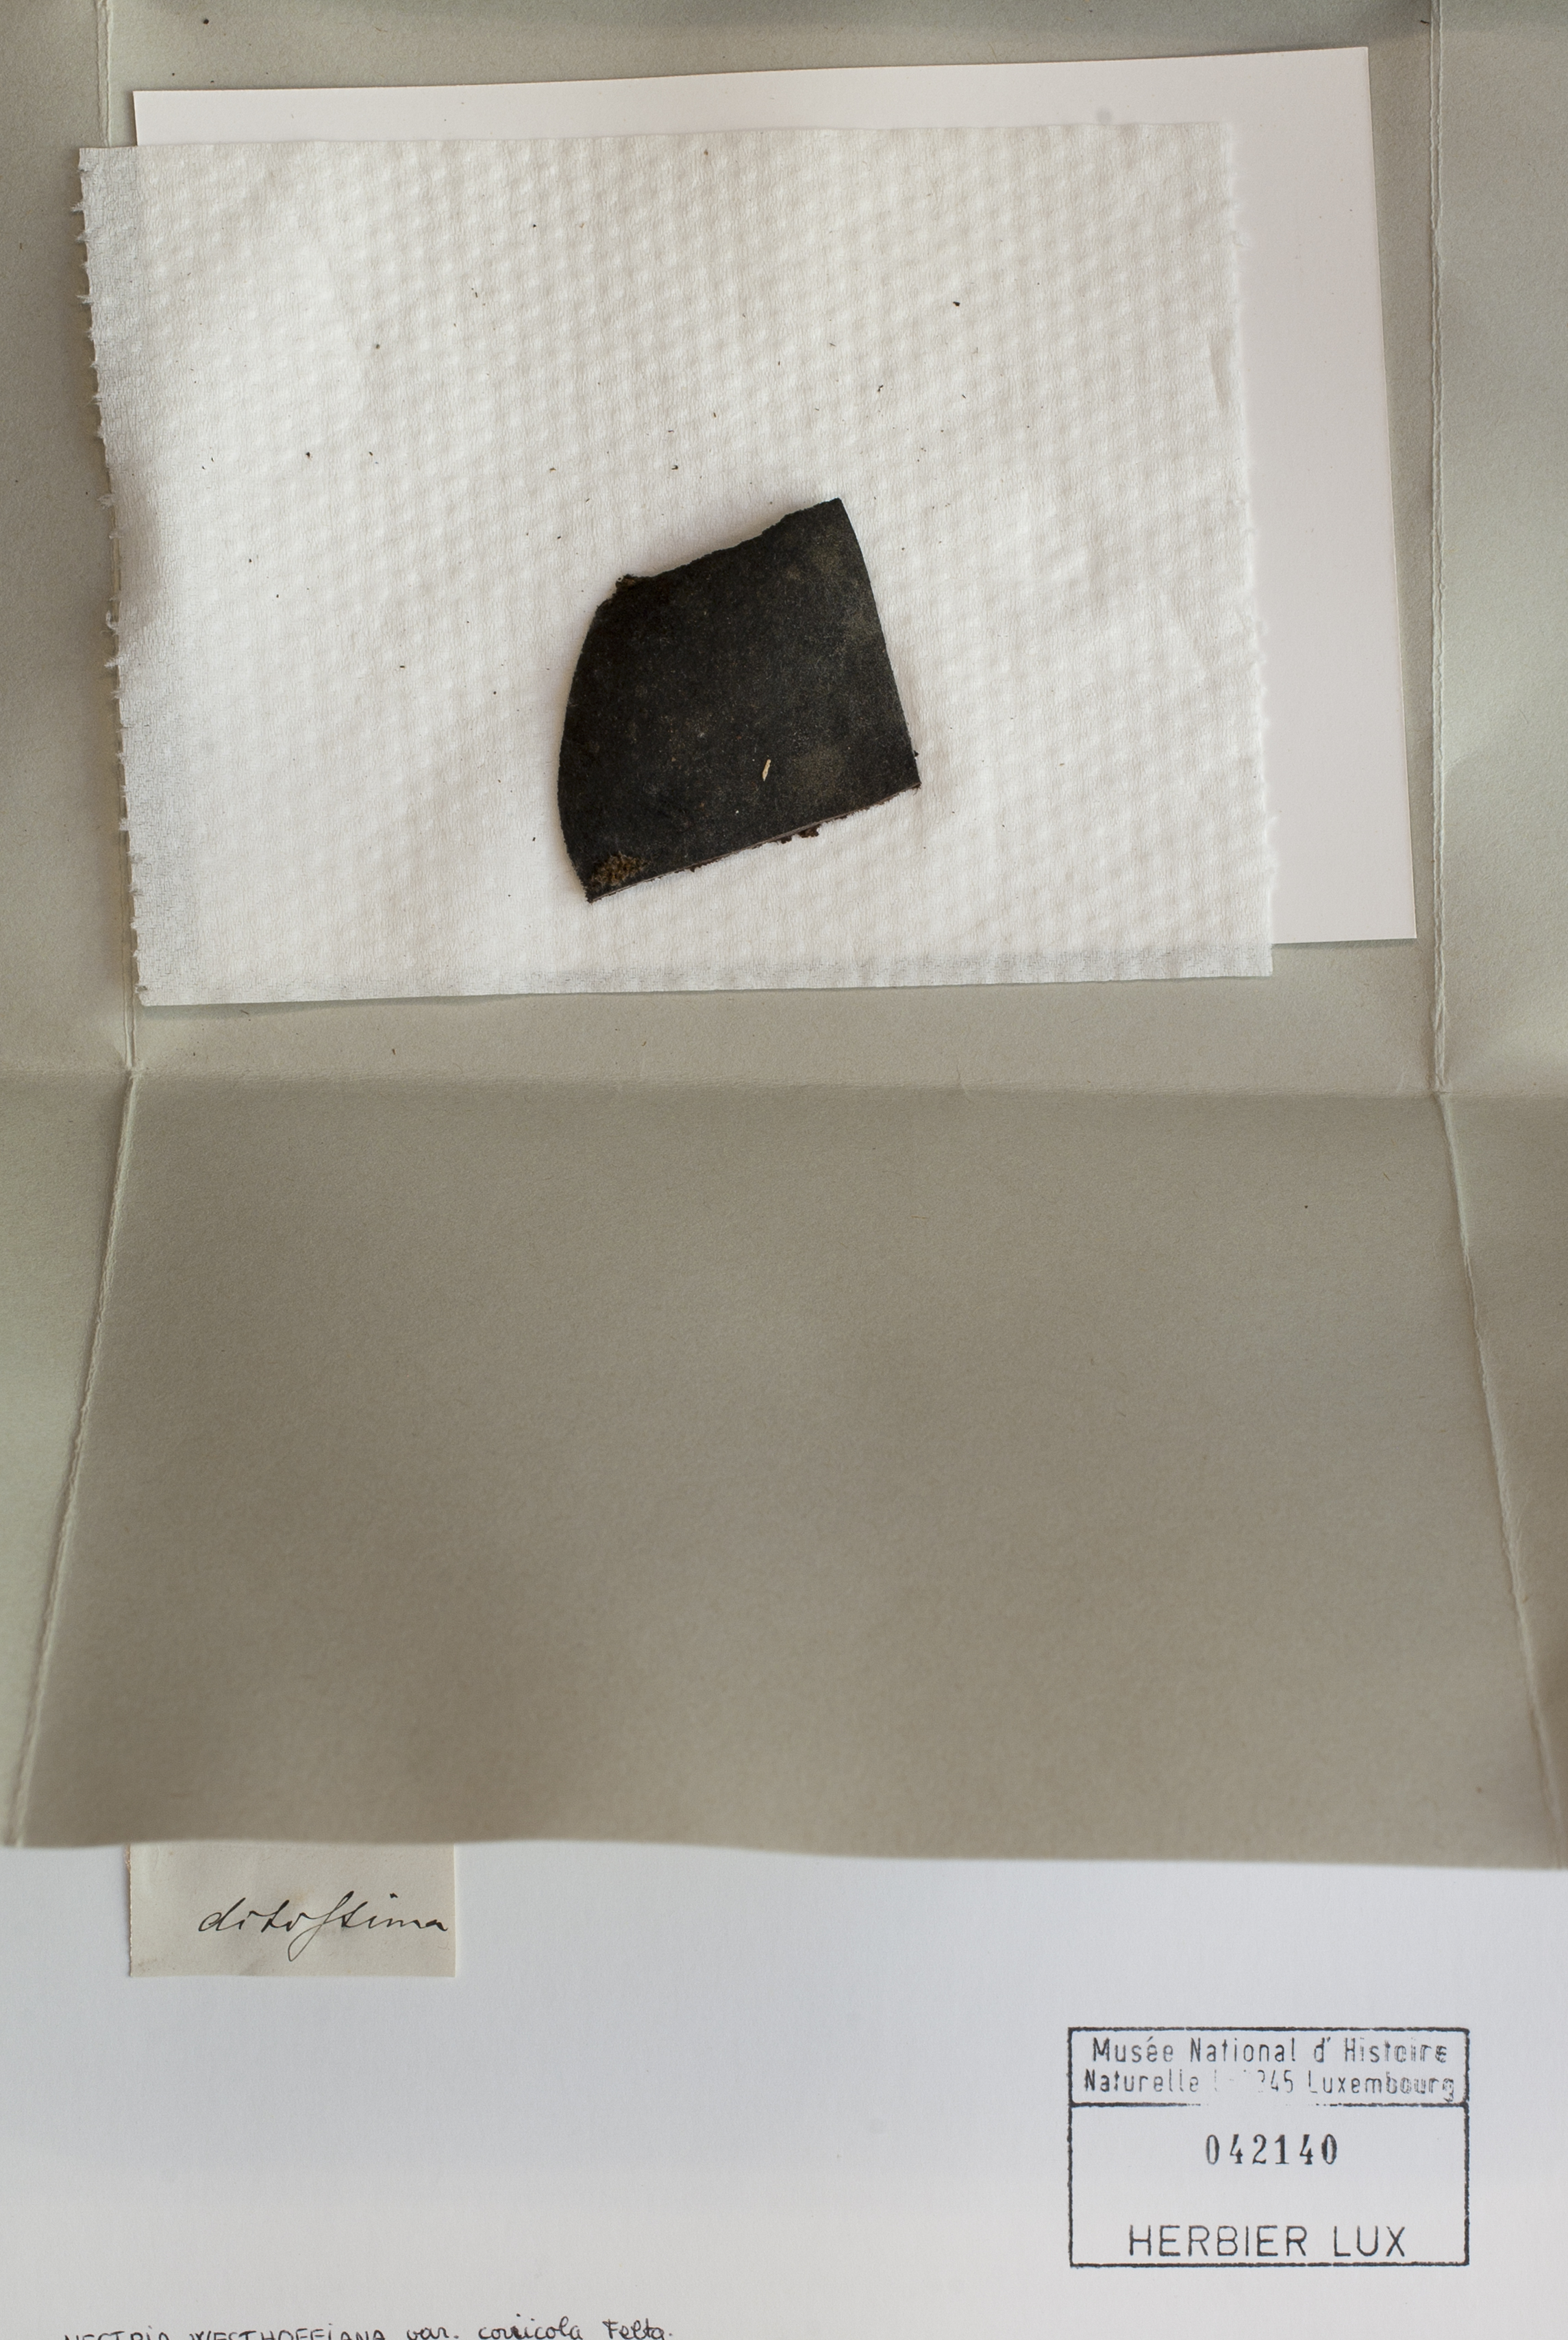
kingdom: Fungi
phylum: Ascomycota
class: Sordariomycetes
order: Hypocreales
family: Nectriaceae
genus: Nectria
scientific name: Nectria
